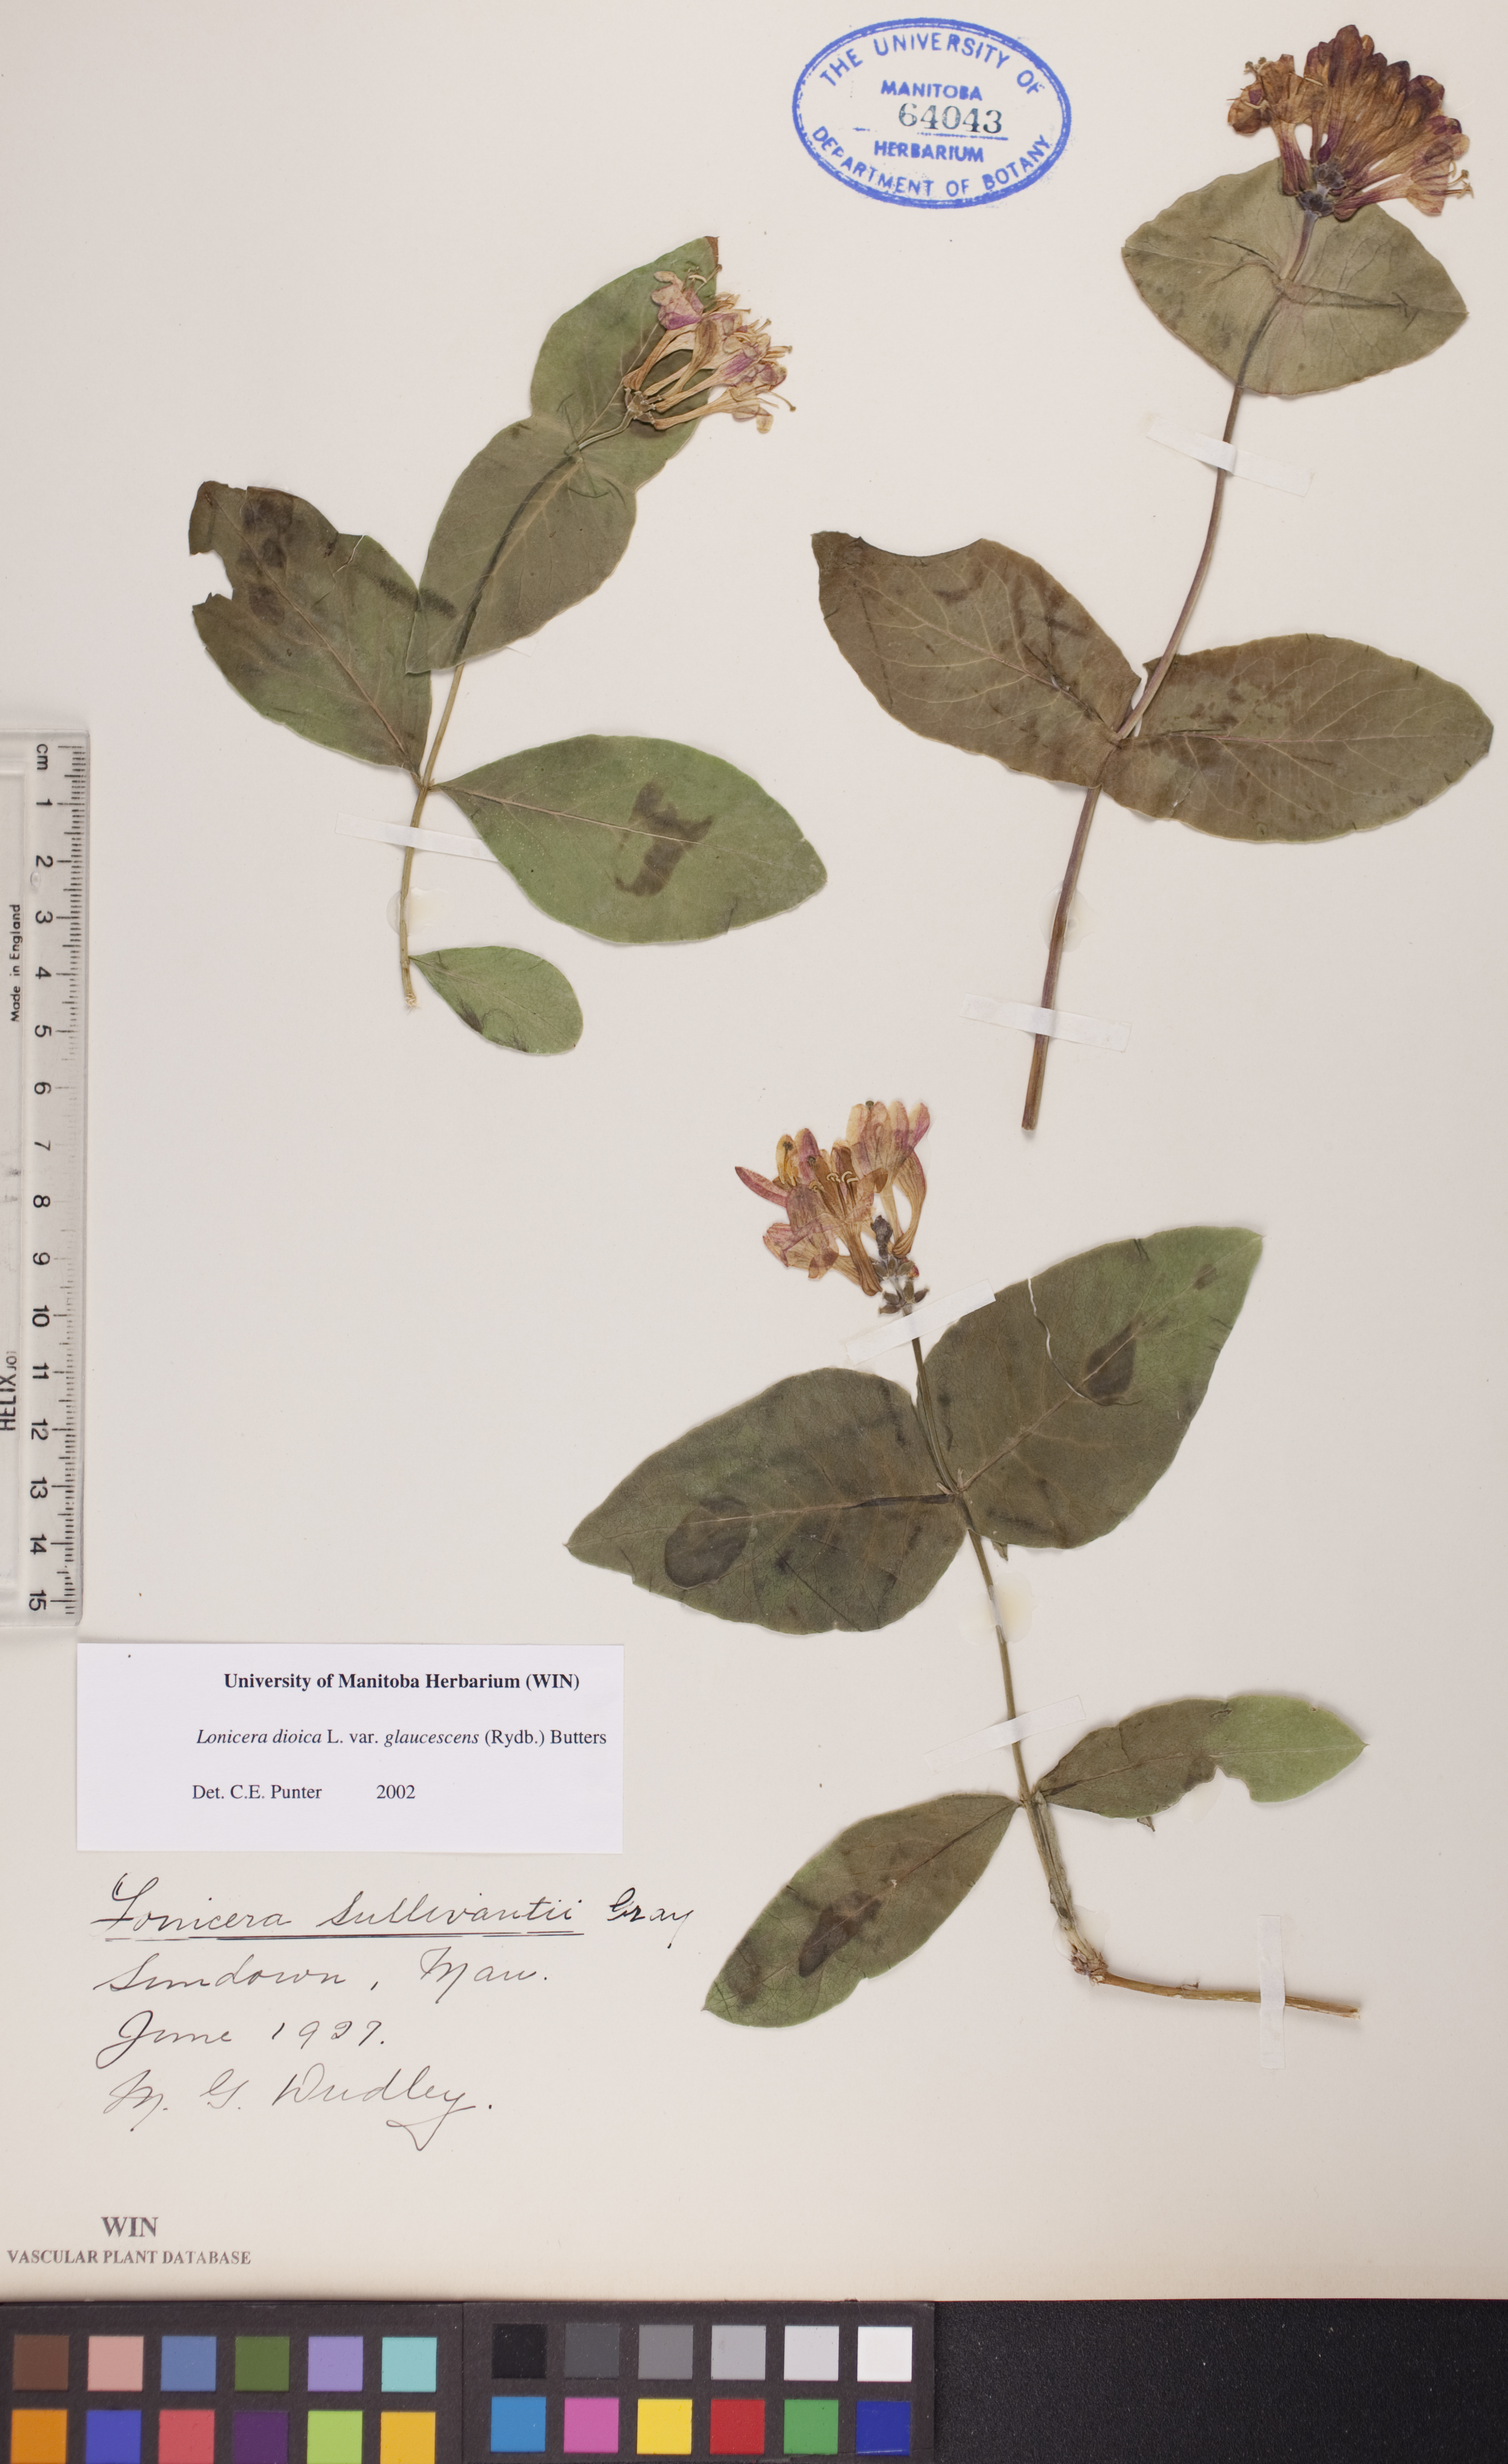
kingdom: Plantae
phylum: Tracheophyta
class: Magnoliopsida
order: Dipsacales
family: Caprifoliaceae
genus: Lonicera
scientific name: Lonicera dioica
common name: Limber honeysuckle
